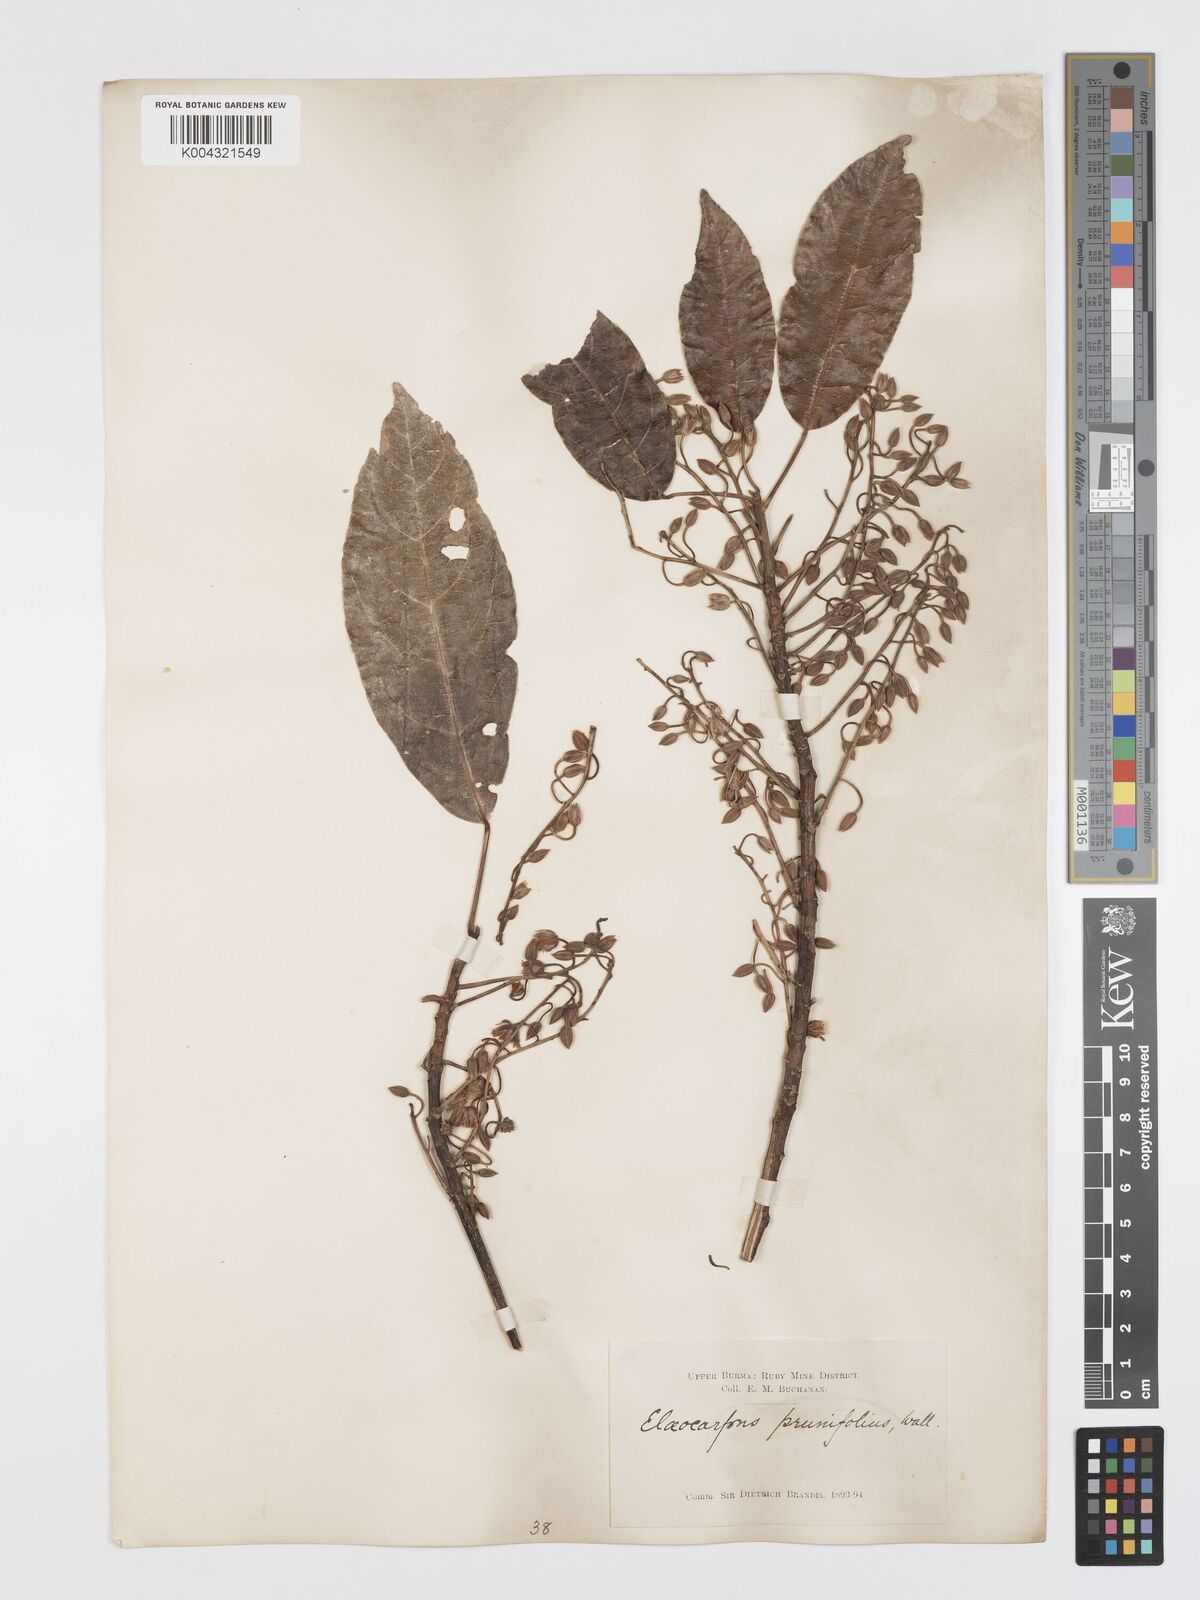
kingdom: Plantae
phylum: Tracheophyta
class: Magnoliopsida
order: Oxalidales
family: Elaeocarpaceae
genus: Elaeocarpus
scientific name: Elaeocarpus prunifolius
